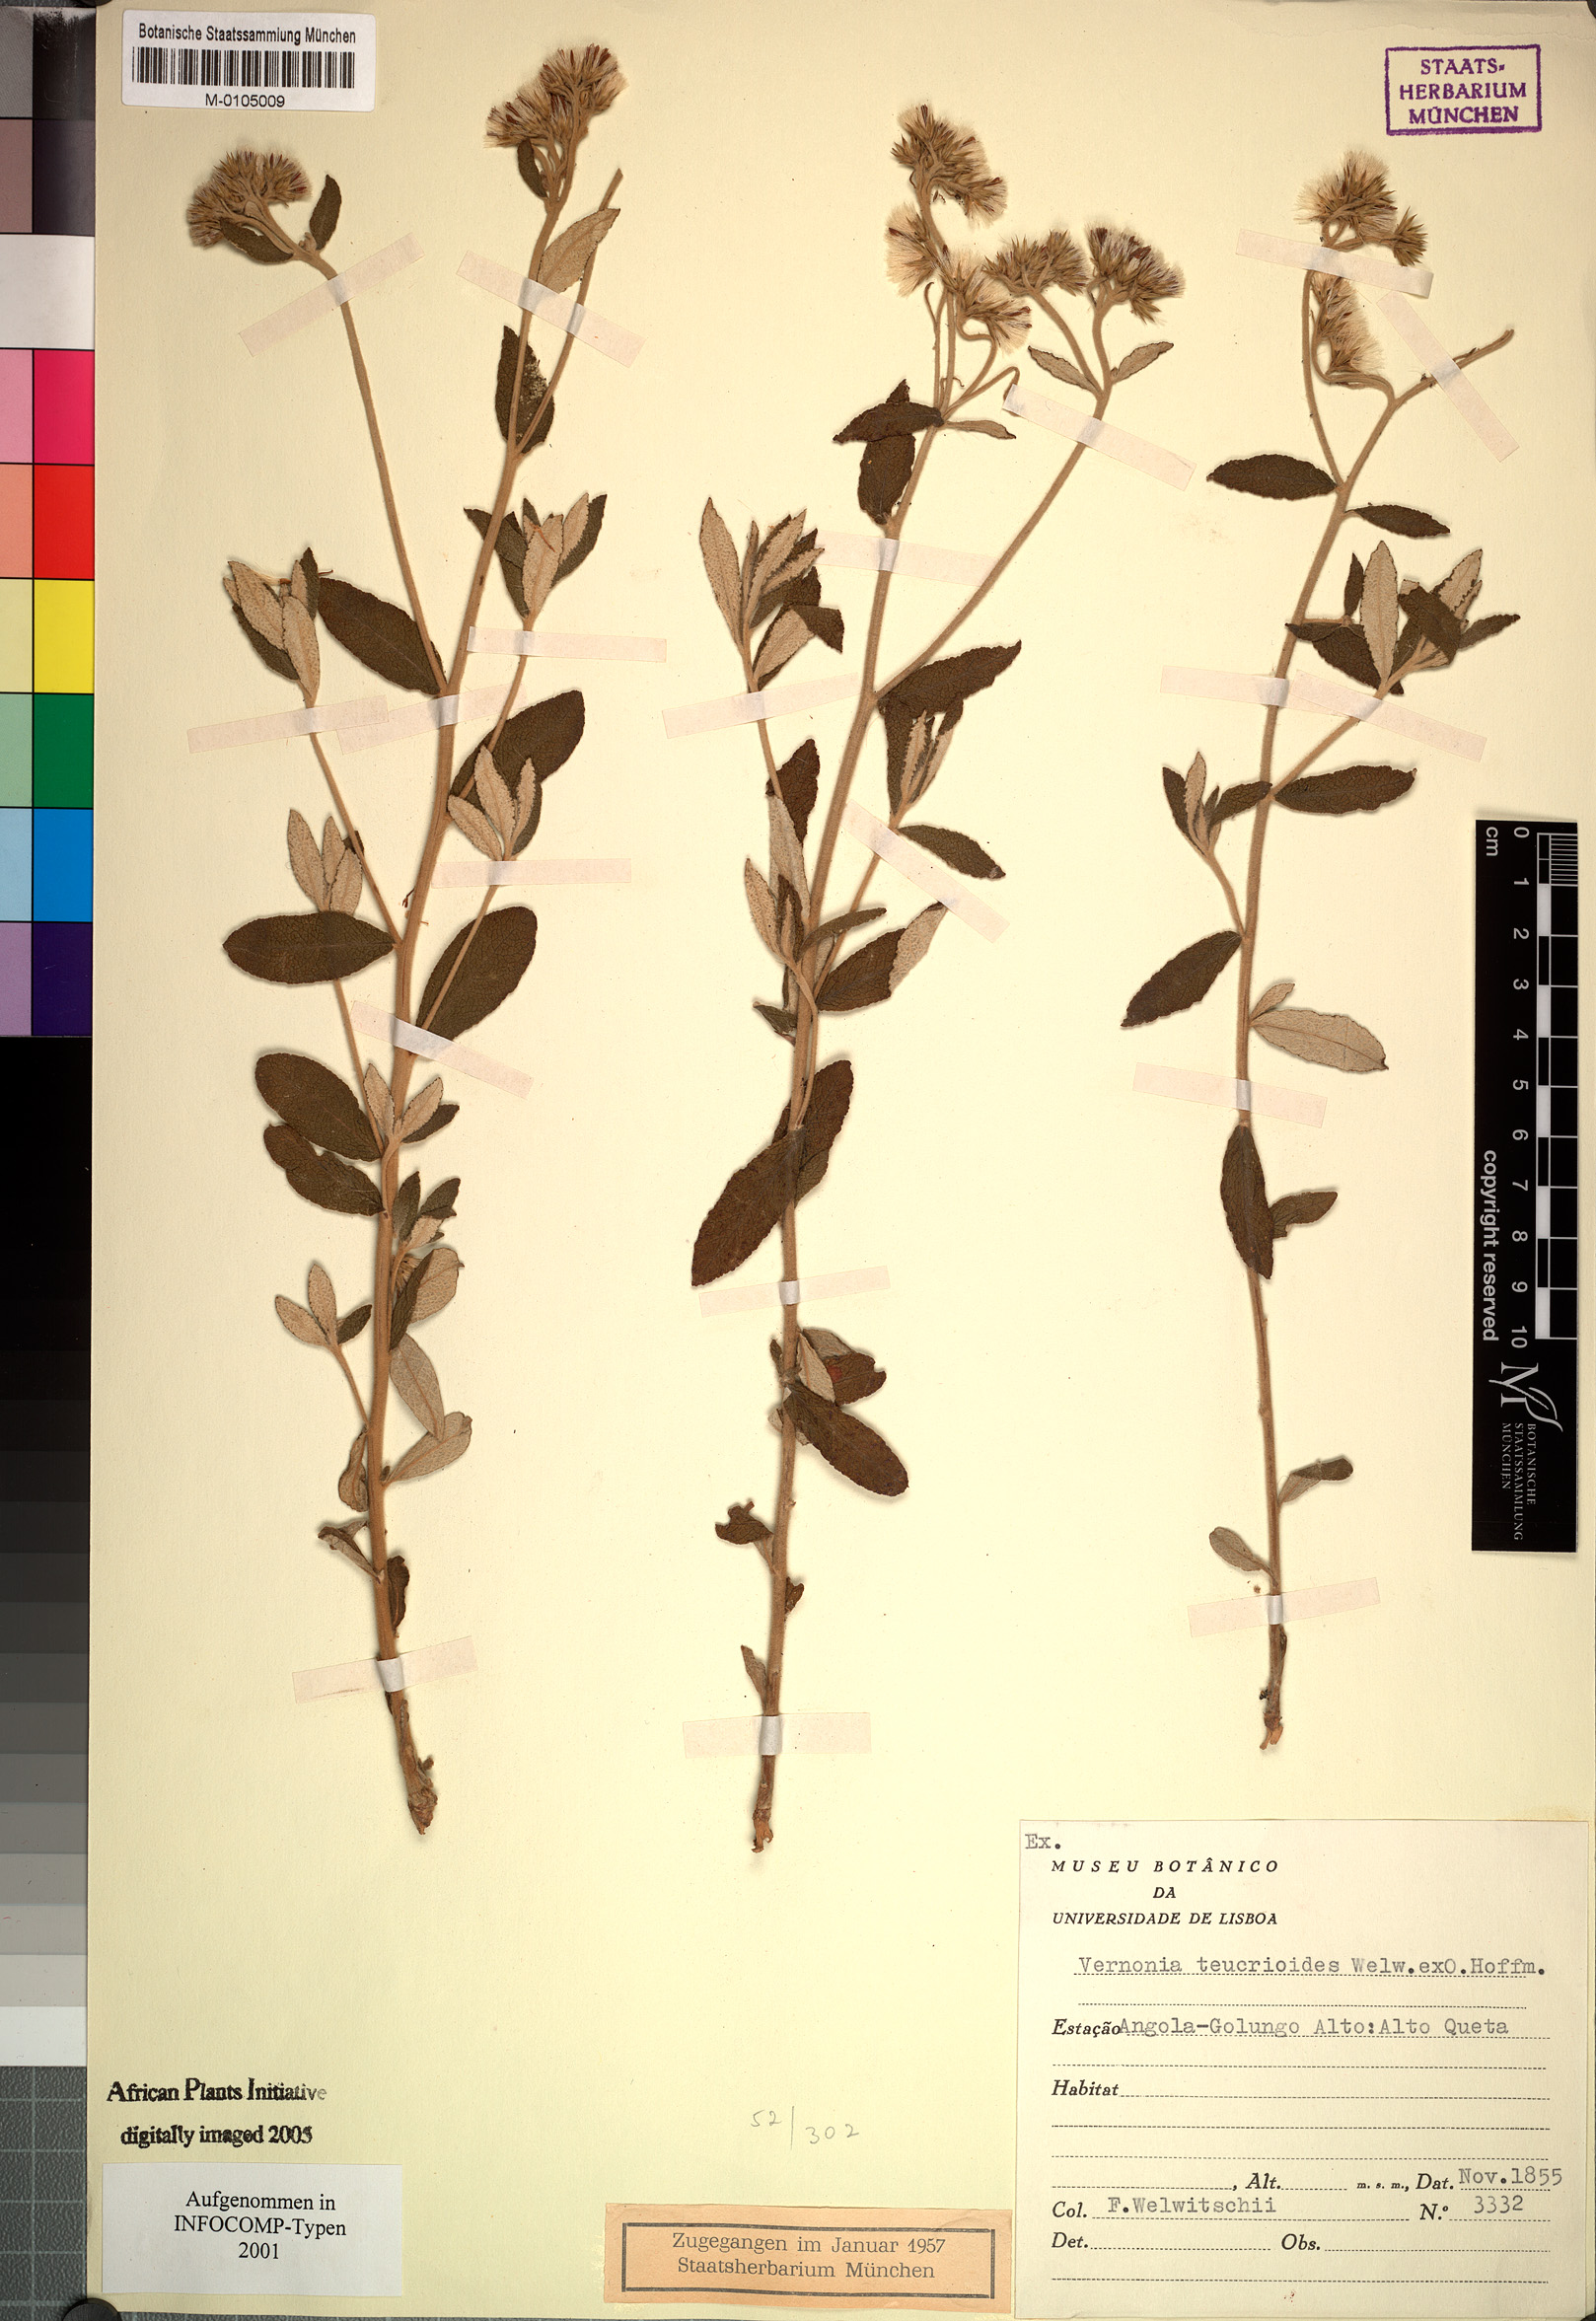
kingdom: Plantae
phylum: Tracheophyta
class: Magnoliopsida
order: Asterales
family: Asteraceae
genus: Vernonia
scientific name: Vernonia teucrioides
